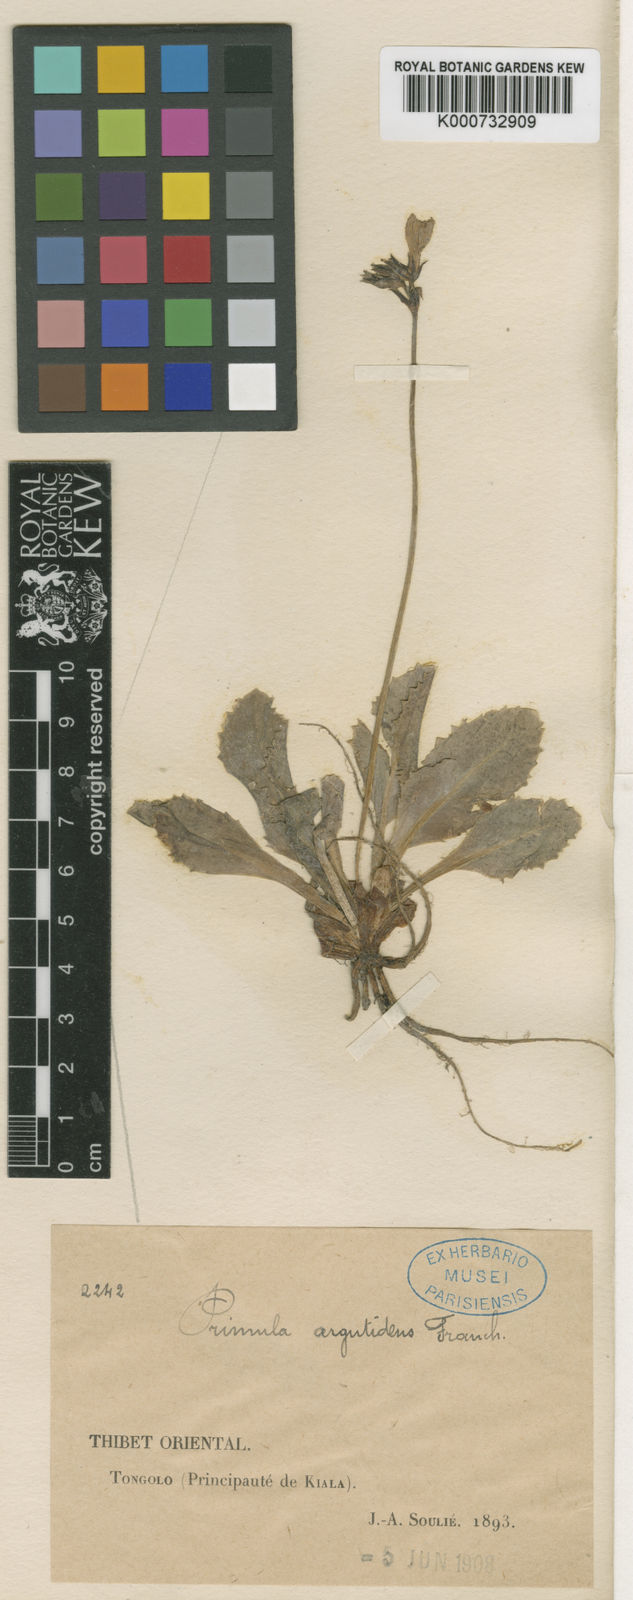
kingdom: Plantae
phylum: Tracheophyta
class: Magnoliopsida
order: Ericales
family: Primulaceae
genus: Primula
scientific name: Primula
